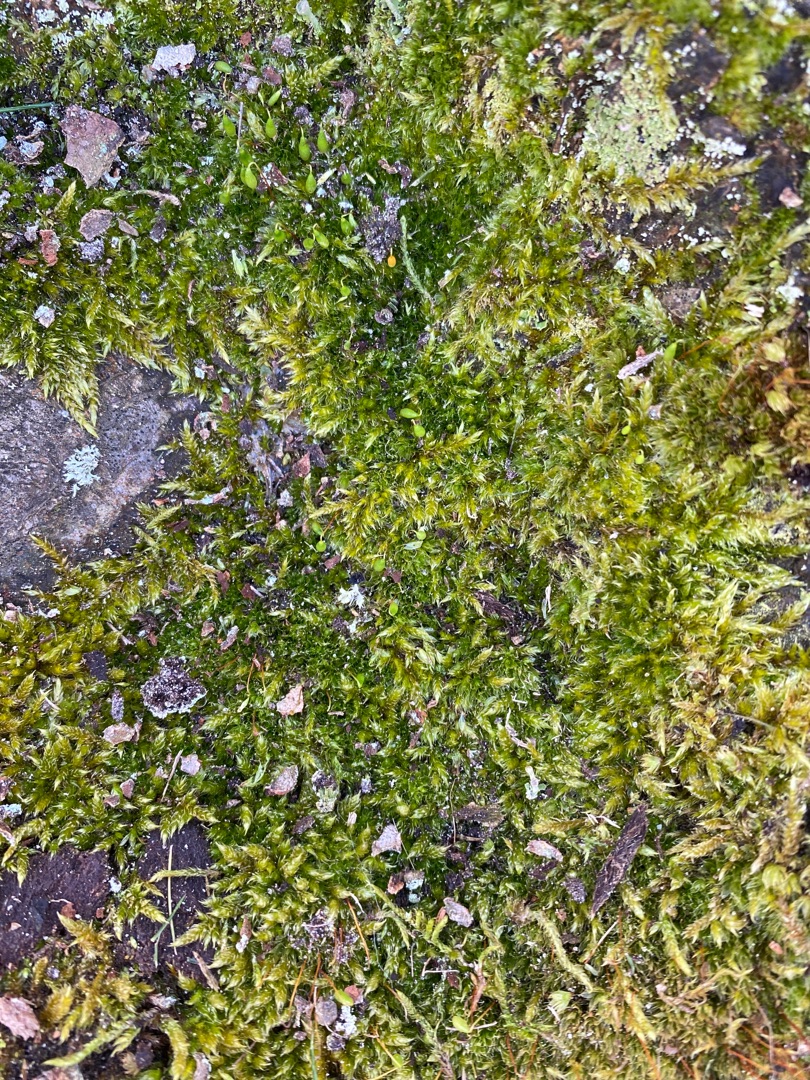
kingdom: Plantae
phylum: Bryophyta
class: Bryopsida
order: Hypnales
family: Hypnaceae
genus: Hypnum
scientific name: Hypnum cupressiforme
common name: Almindelig cypresmos
